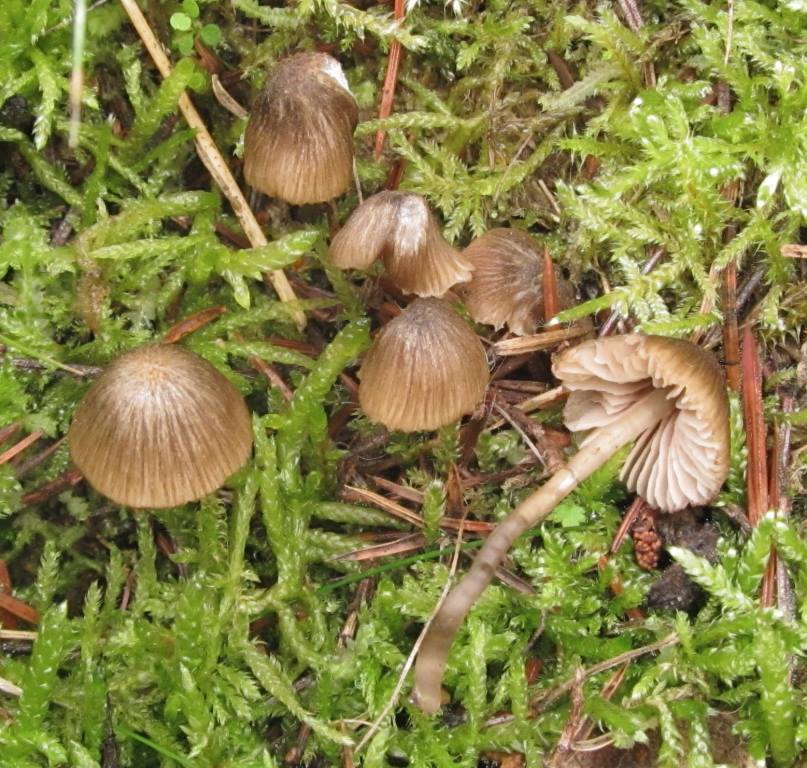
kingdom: Fungi
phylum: Basidiomycota
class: Agaricomycetes
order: Agaricales
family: Entolomataceae
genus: Entoloma
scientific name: Entoloma velenovskyi
